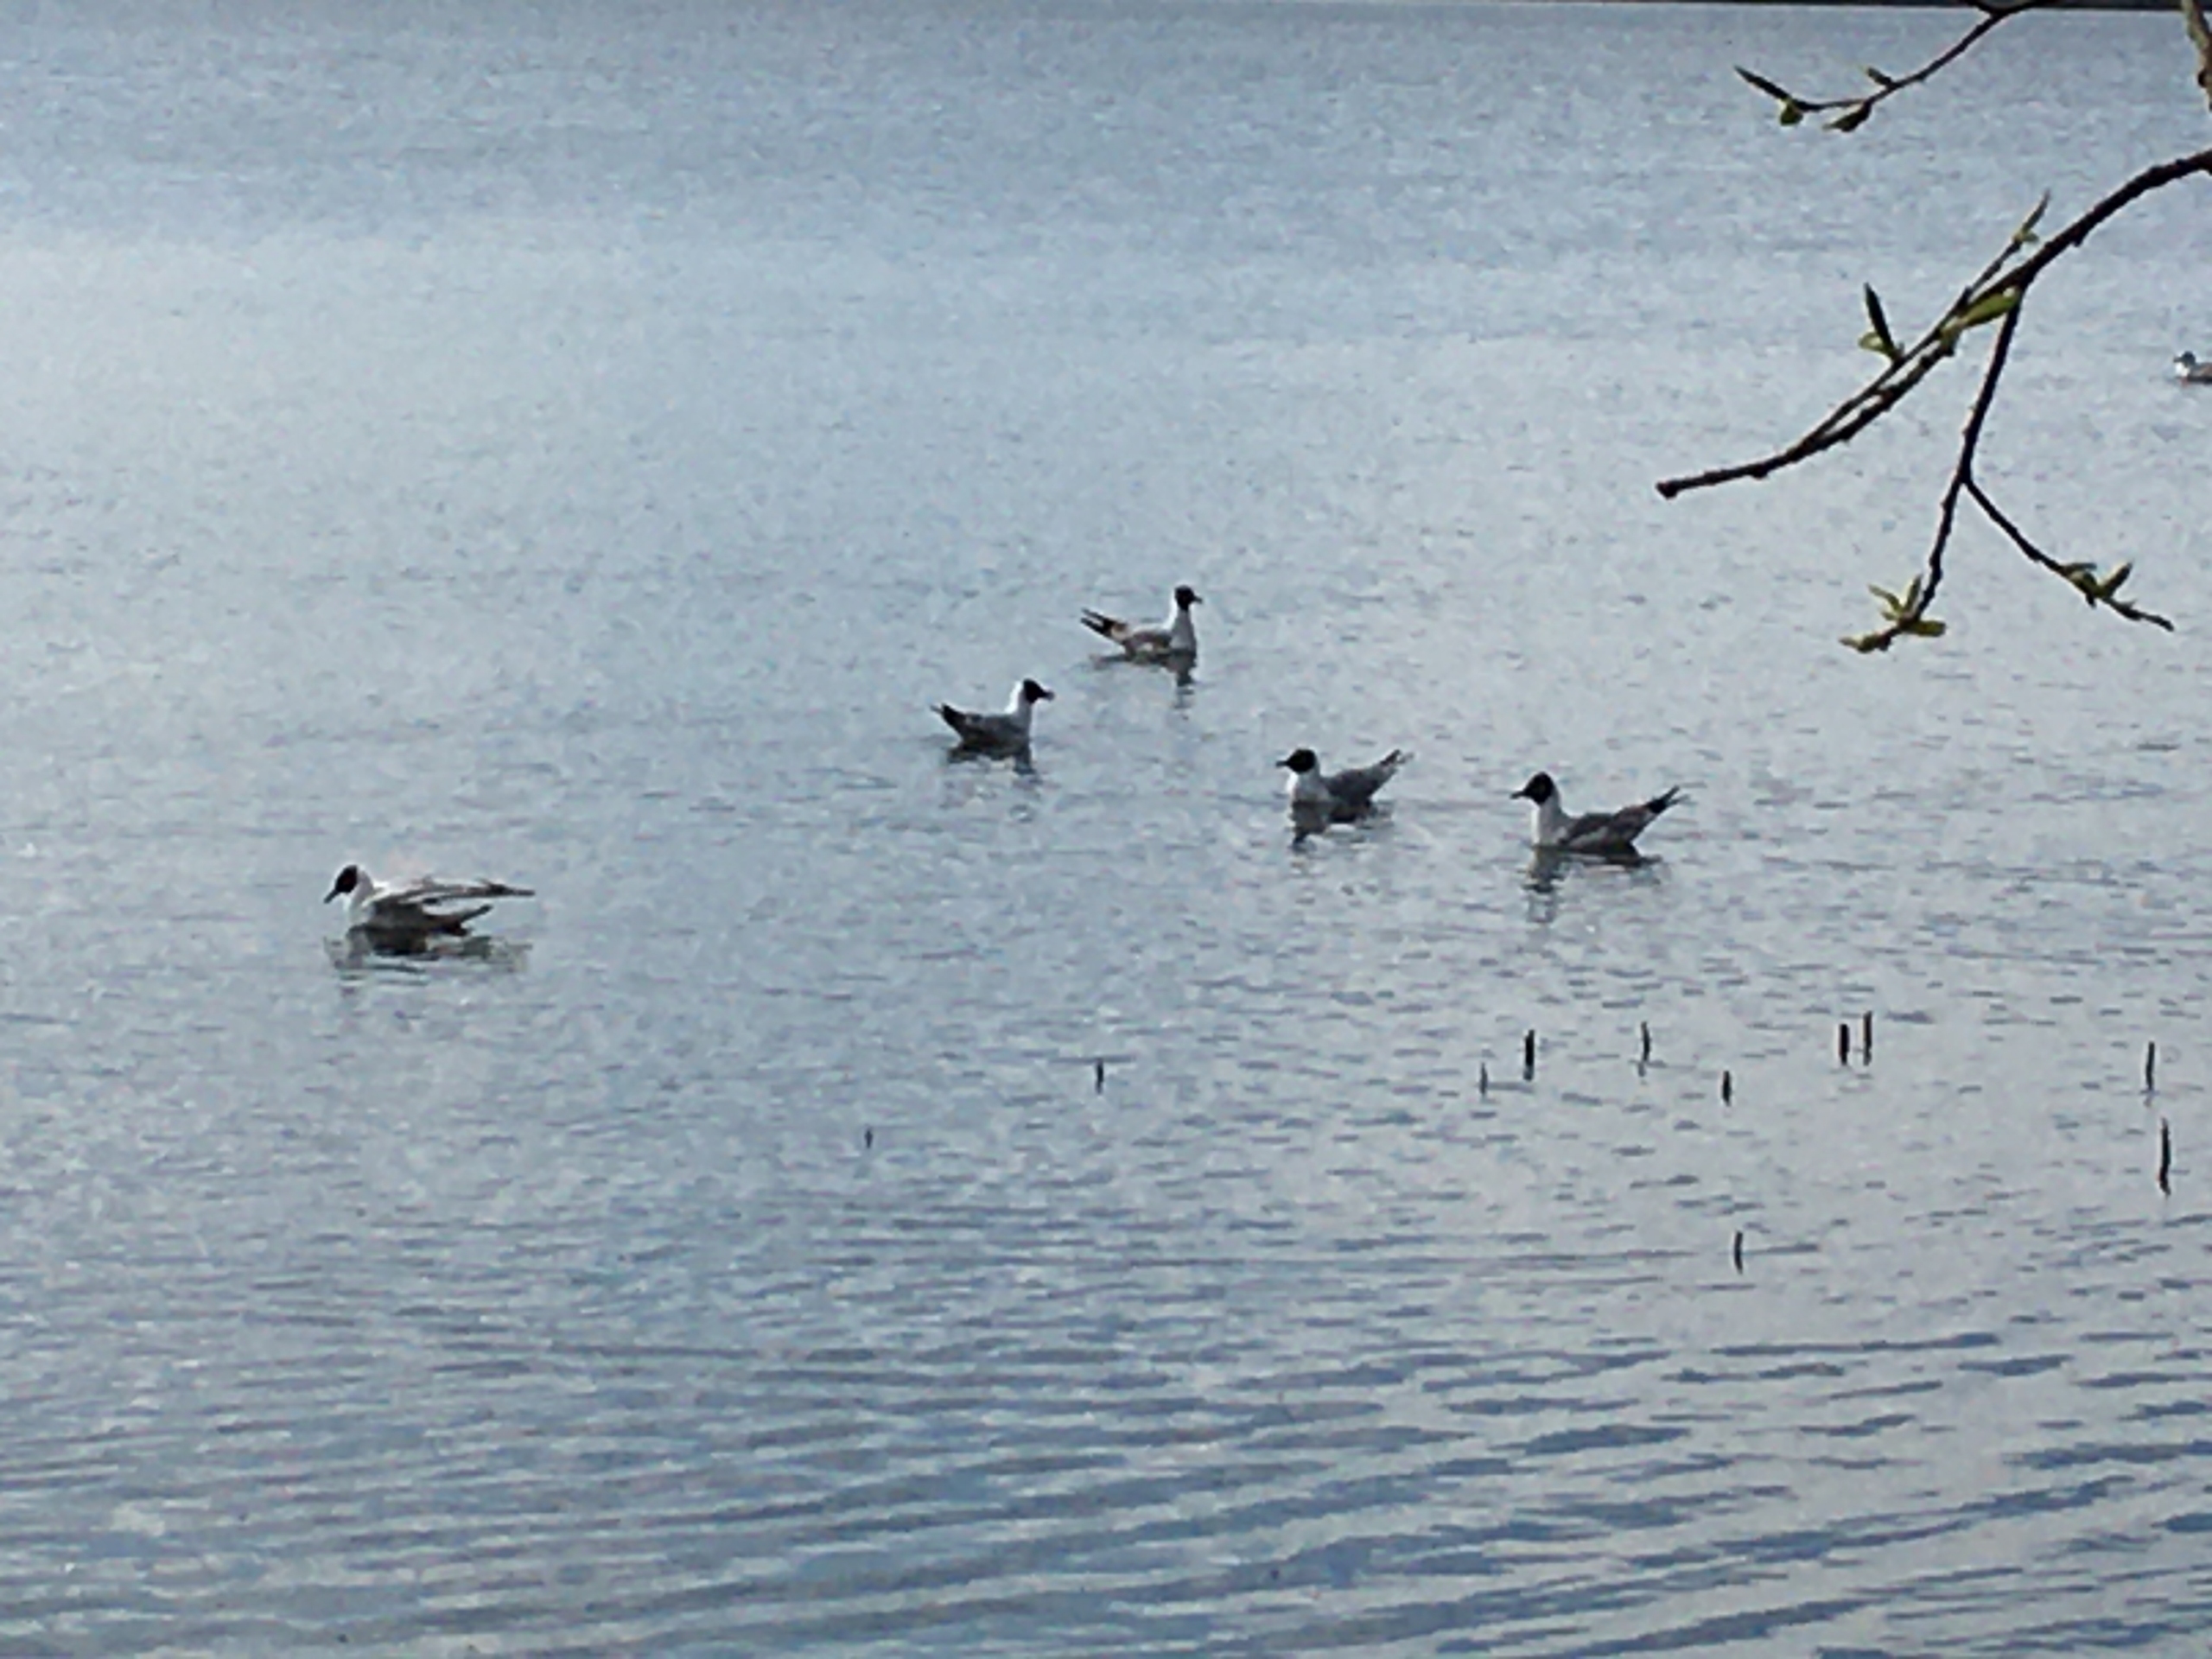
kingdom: Animalia
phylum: Chordata
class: Aves
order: Charadriiformes
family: Laridae
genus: Chroicocephalus
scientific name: Chroicocephalus ridibundus
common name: Hættemåge
